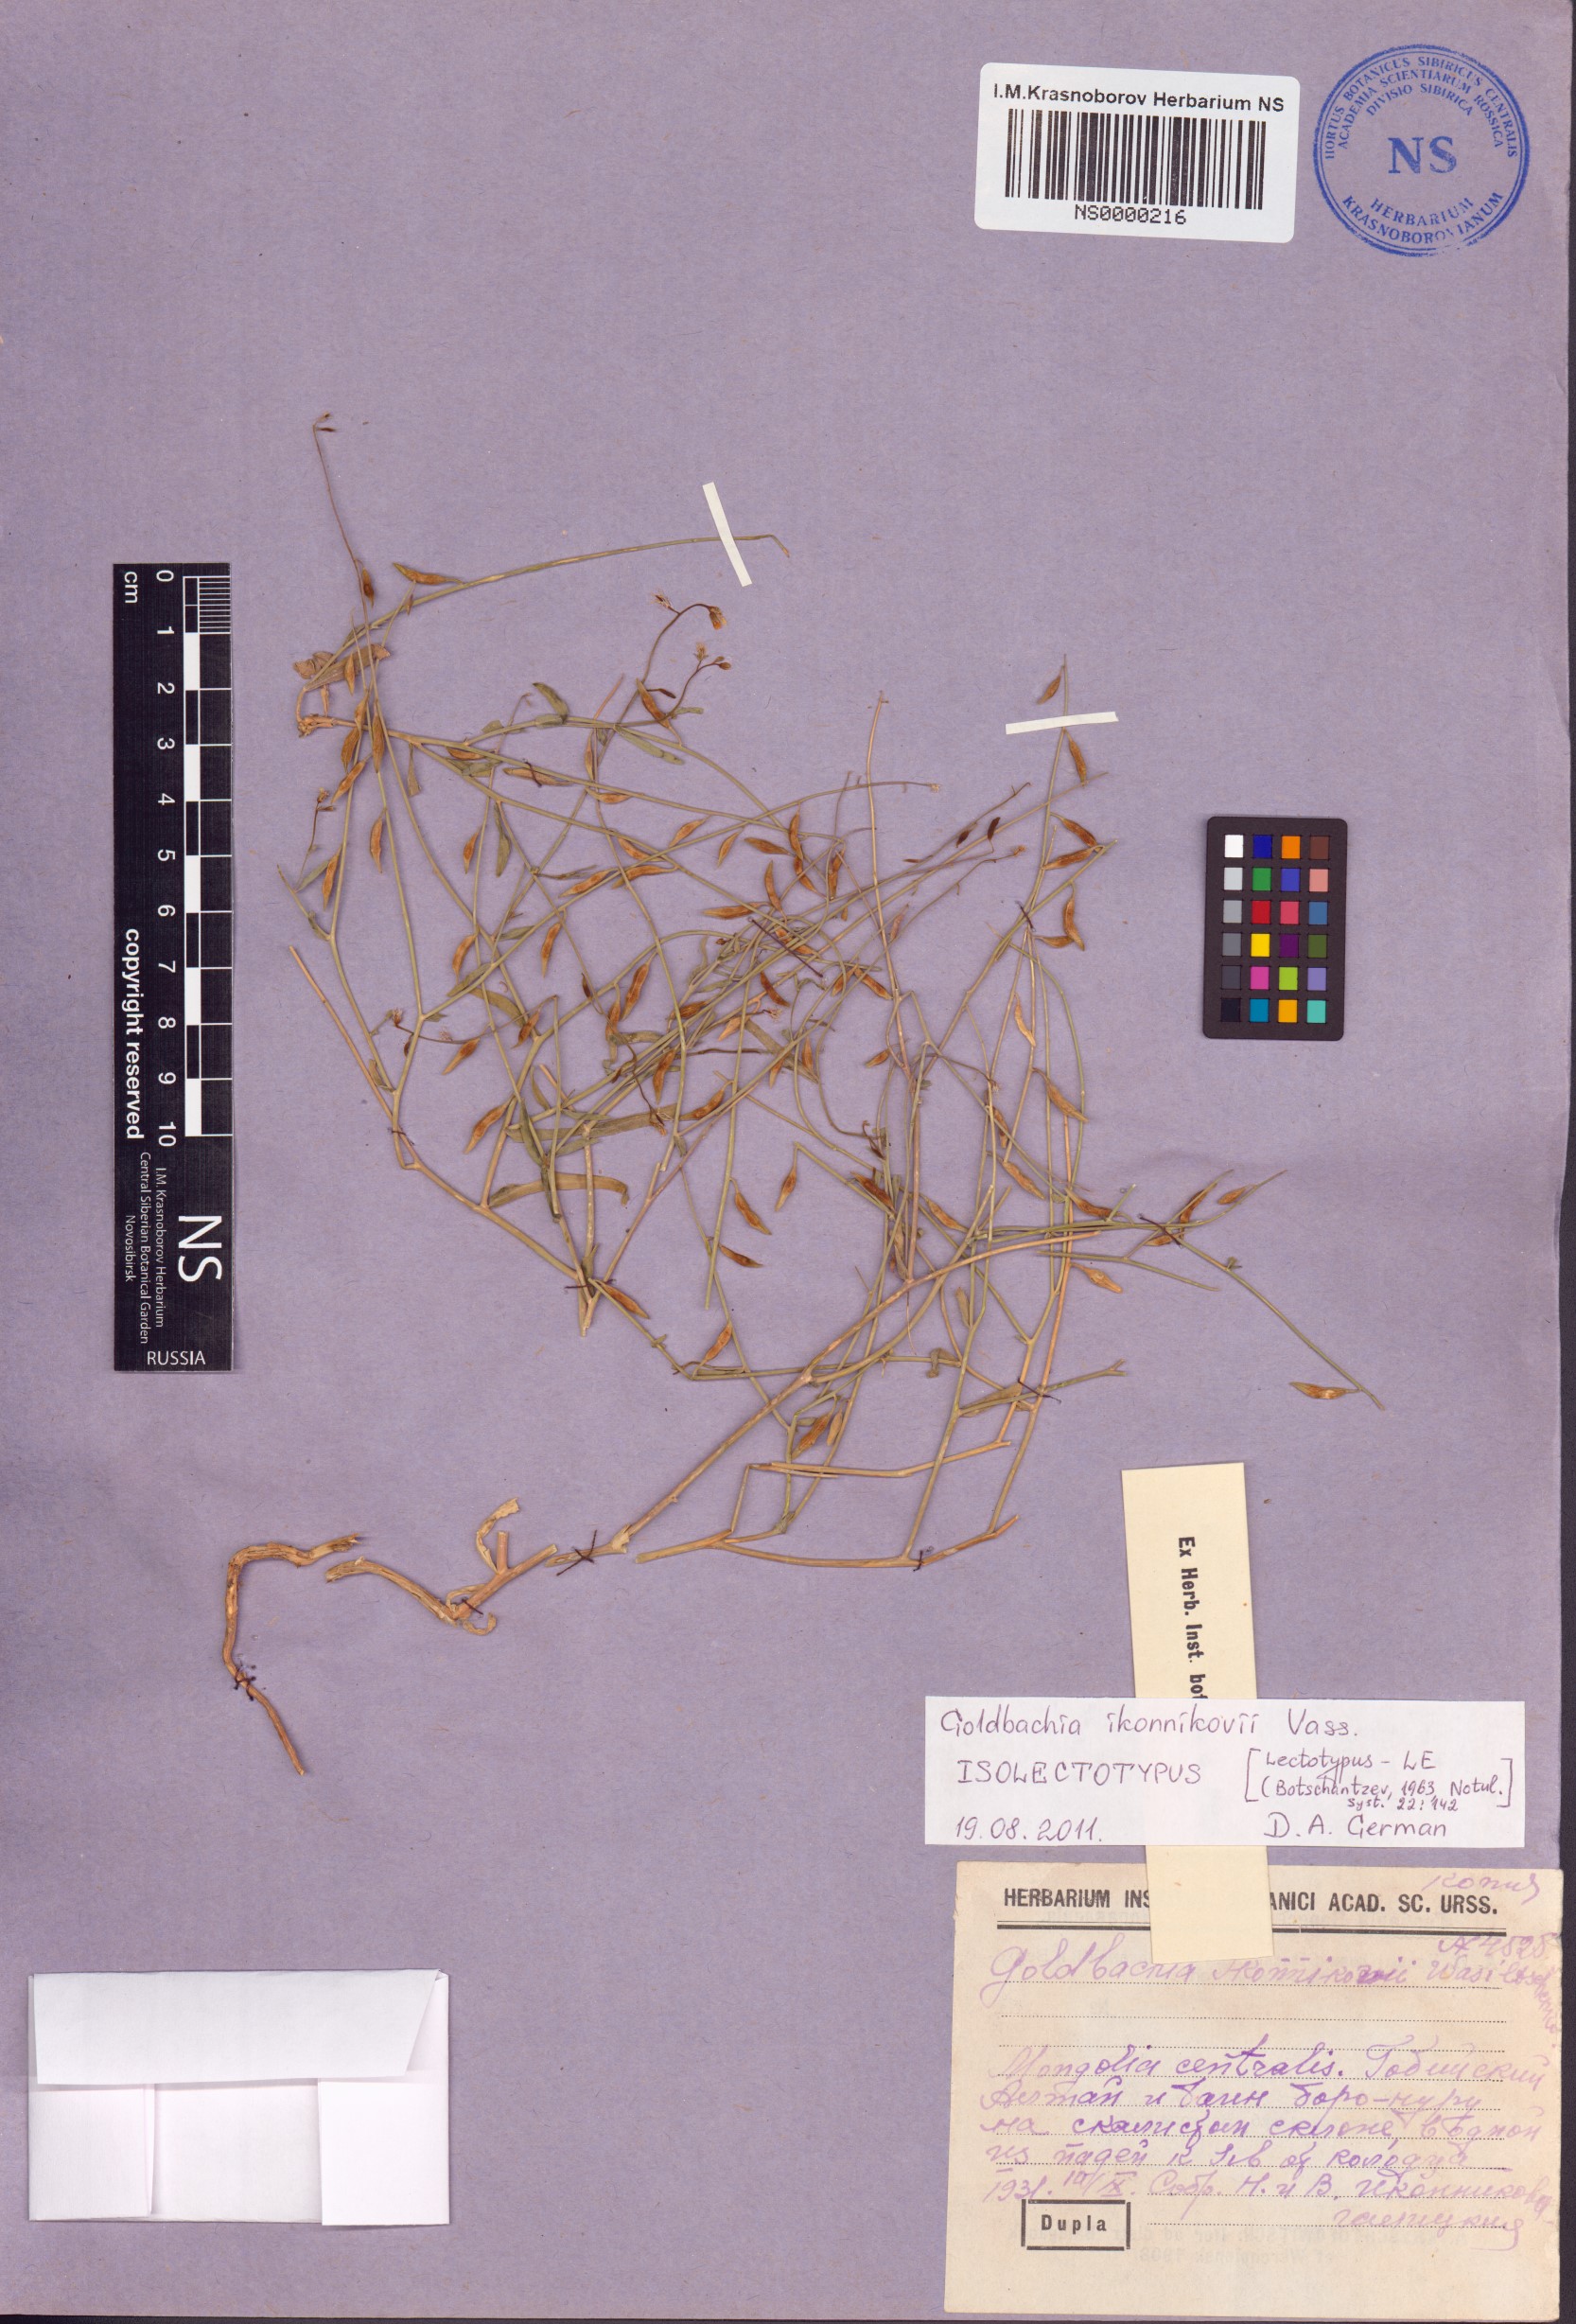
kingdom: Plantae
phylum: Tracheophyta
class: Magnoliopsida
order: Brassicales
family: Brassicaceae
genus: Goldbachia
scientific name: Goldbachia ikonnikovii
